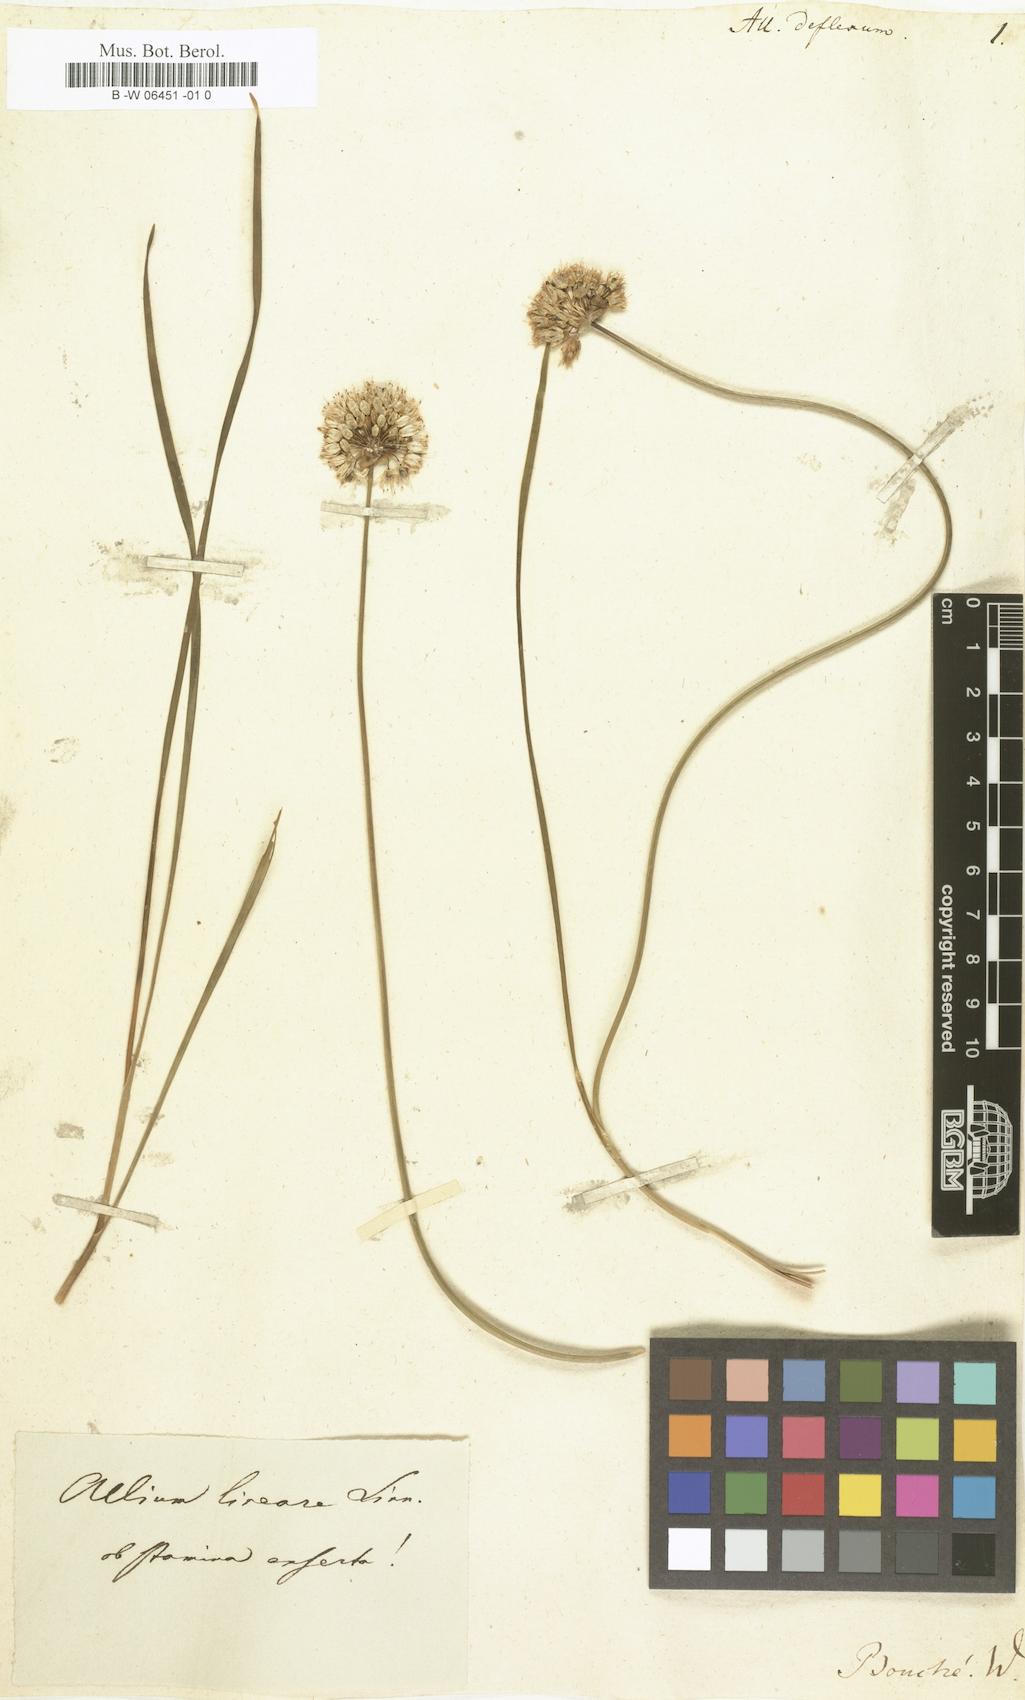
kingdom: Plantae
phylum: Tracheophyta
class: Liliopsida
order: Asparagales
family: Amaryllidaceae
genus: Allium
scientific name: Allium
